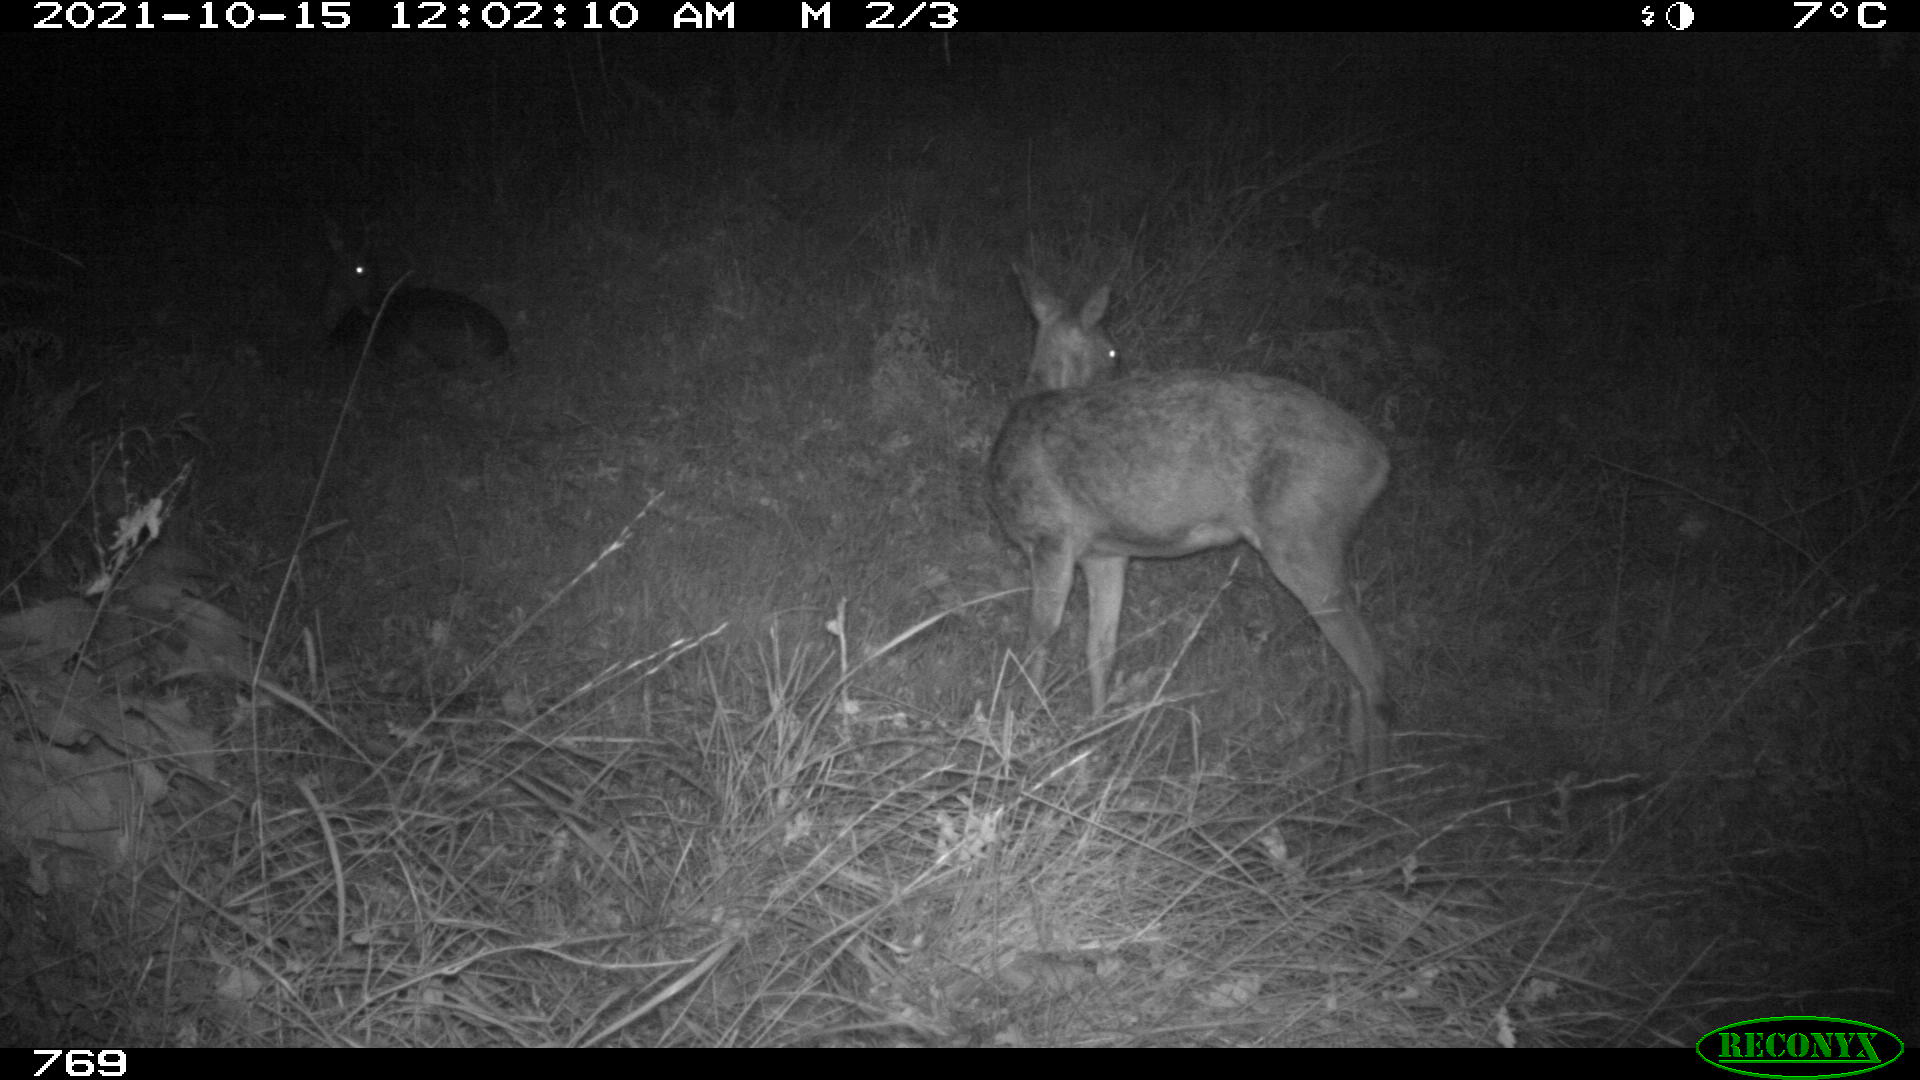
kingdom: Animalia
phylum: Chordata
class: Mammalia
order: Artiodactyla
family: Cervidae
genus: Capreolus
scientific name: Capreolus capreolus
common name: Western roe deer
